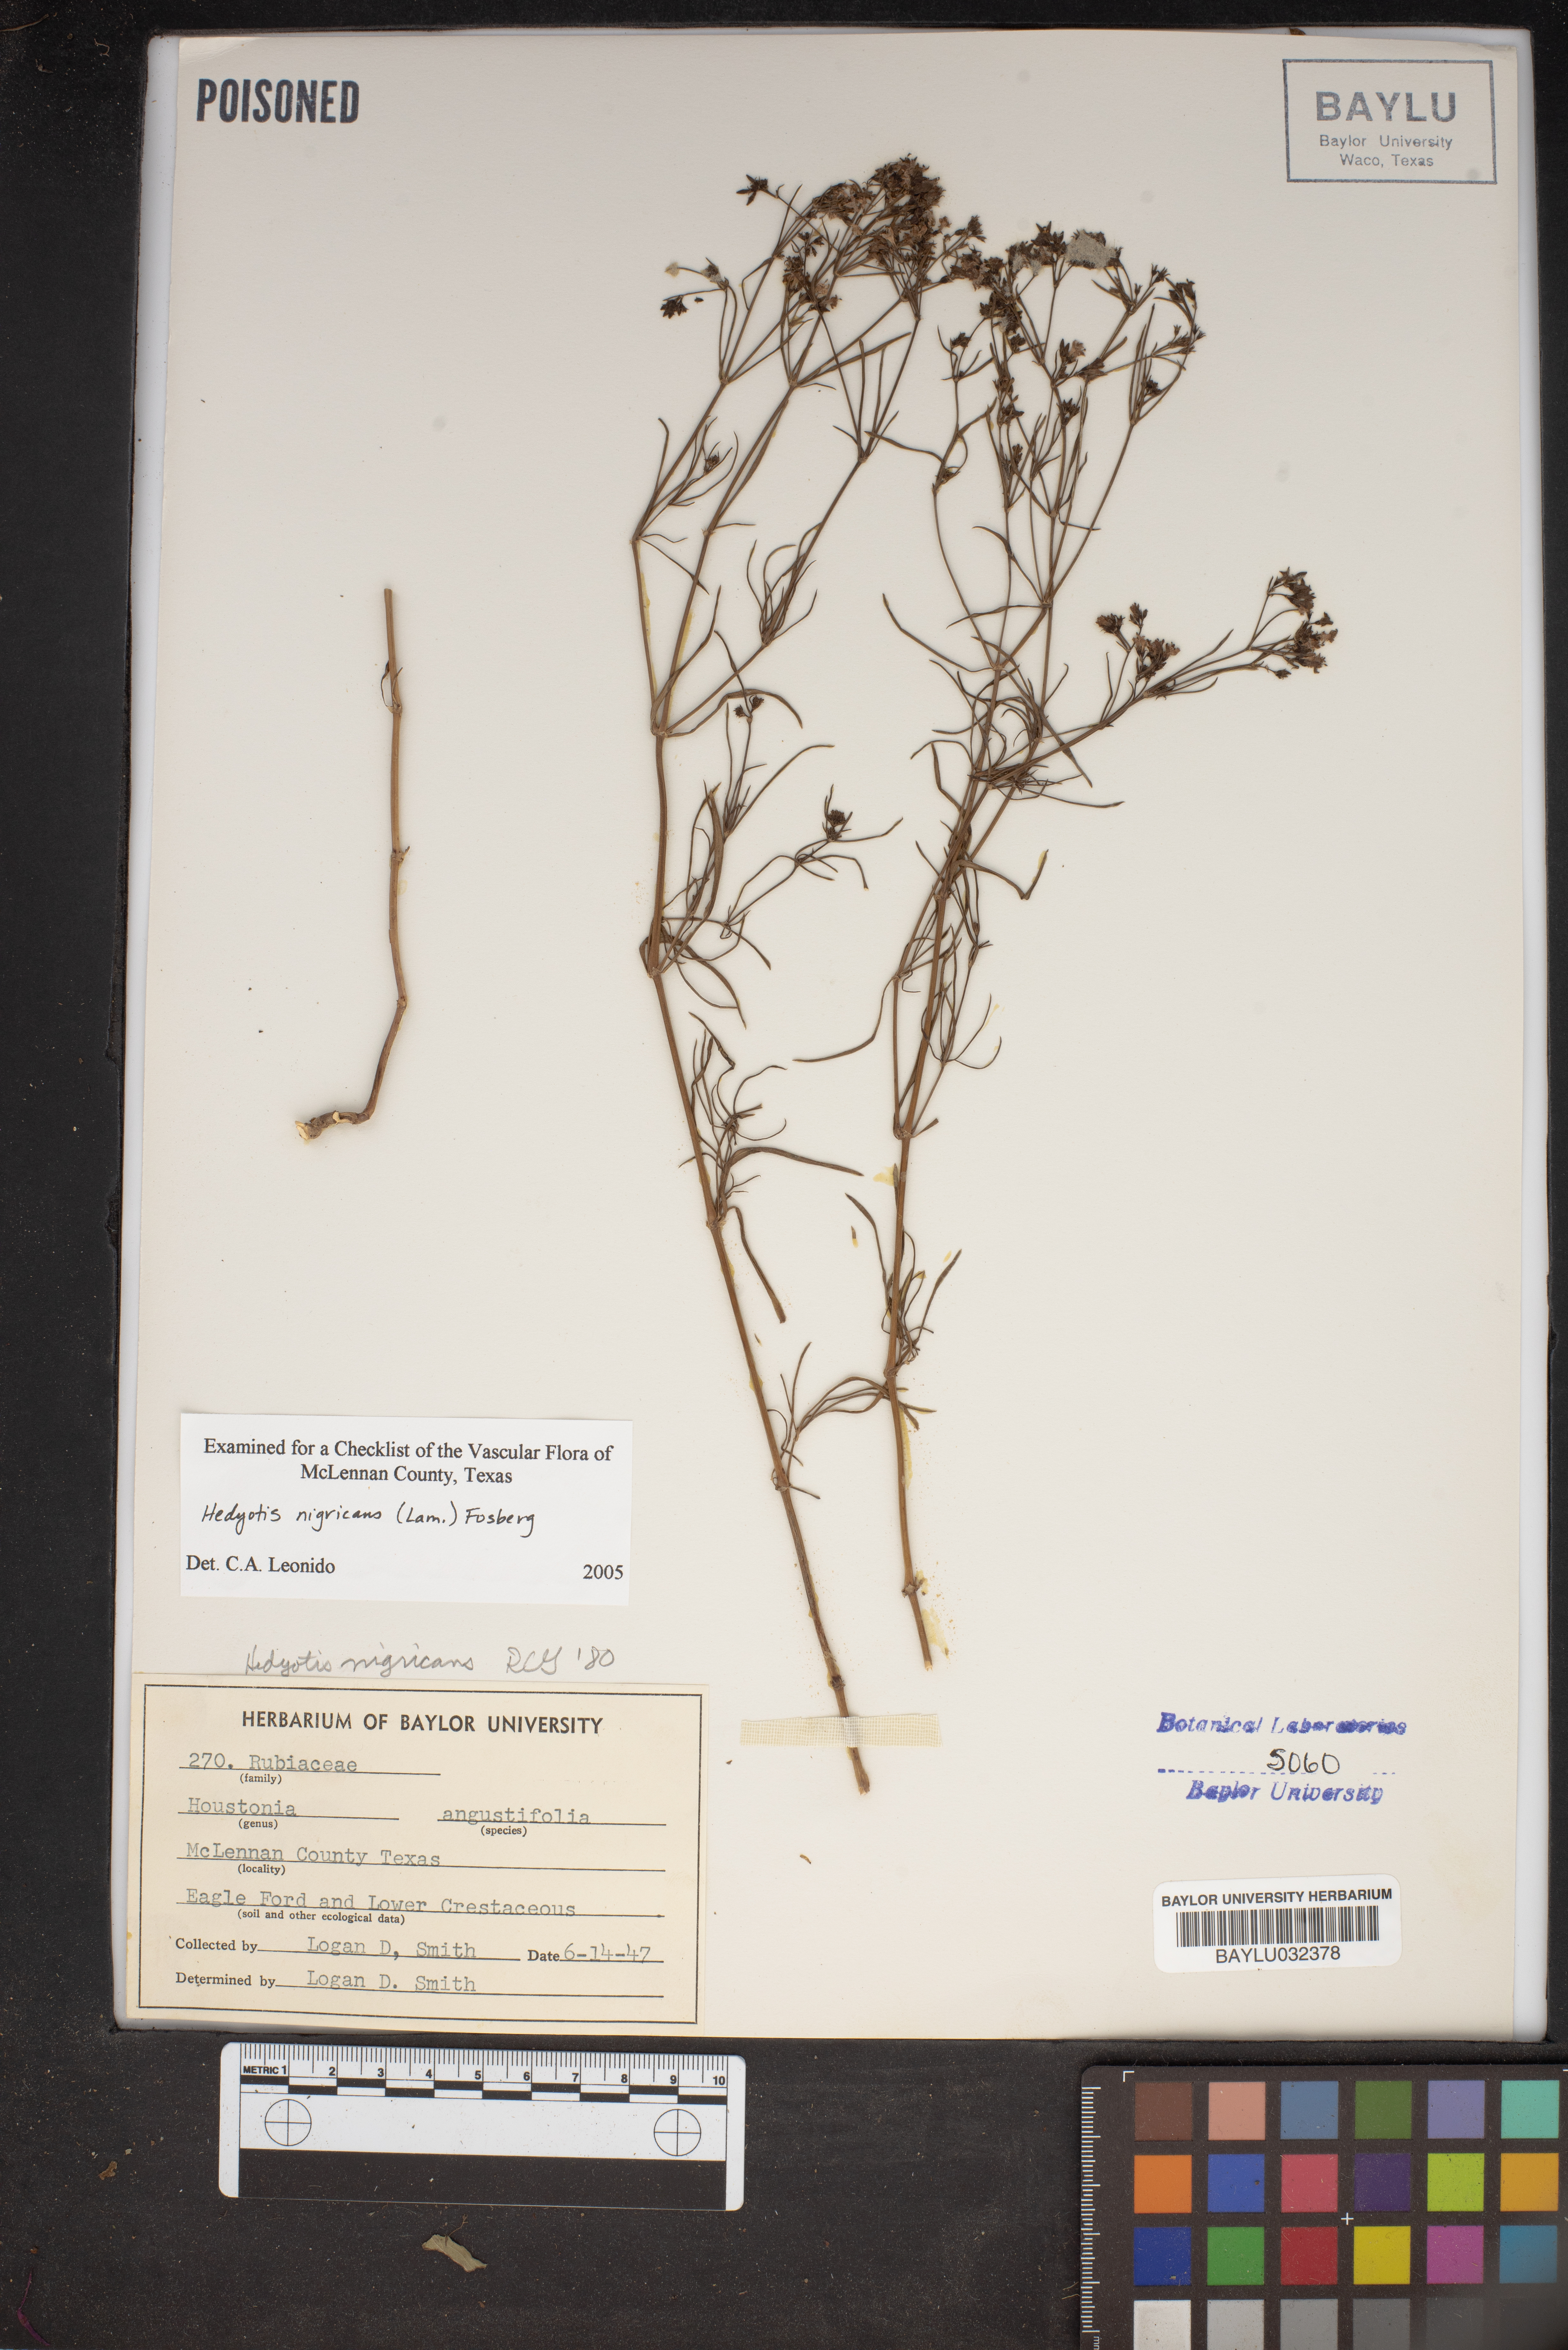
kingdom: Plantae
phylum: Tracheophyta
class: Magnoliopsida
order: Gentianales
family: Rubiaceae
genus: Stenaria
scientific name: Stenaria nigricans
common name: Diamondflowers
